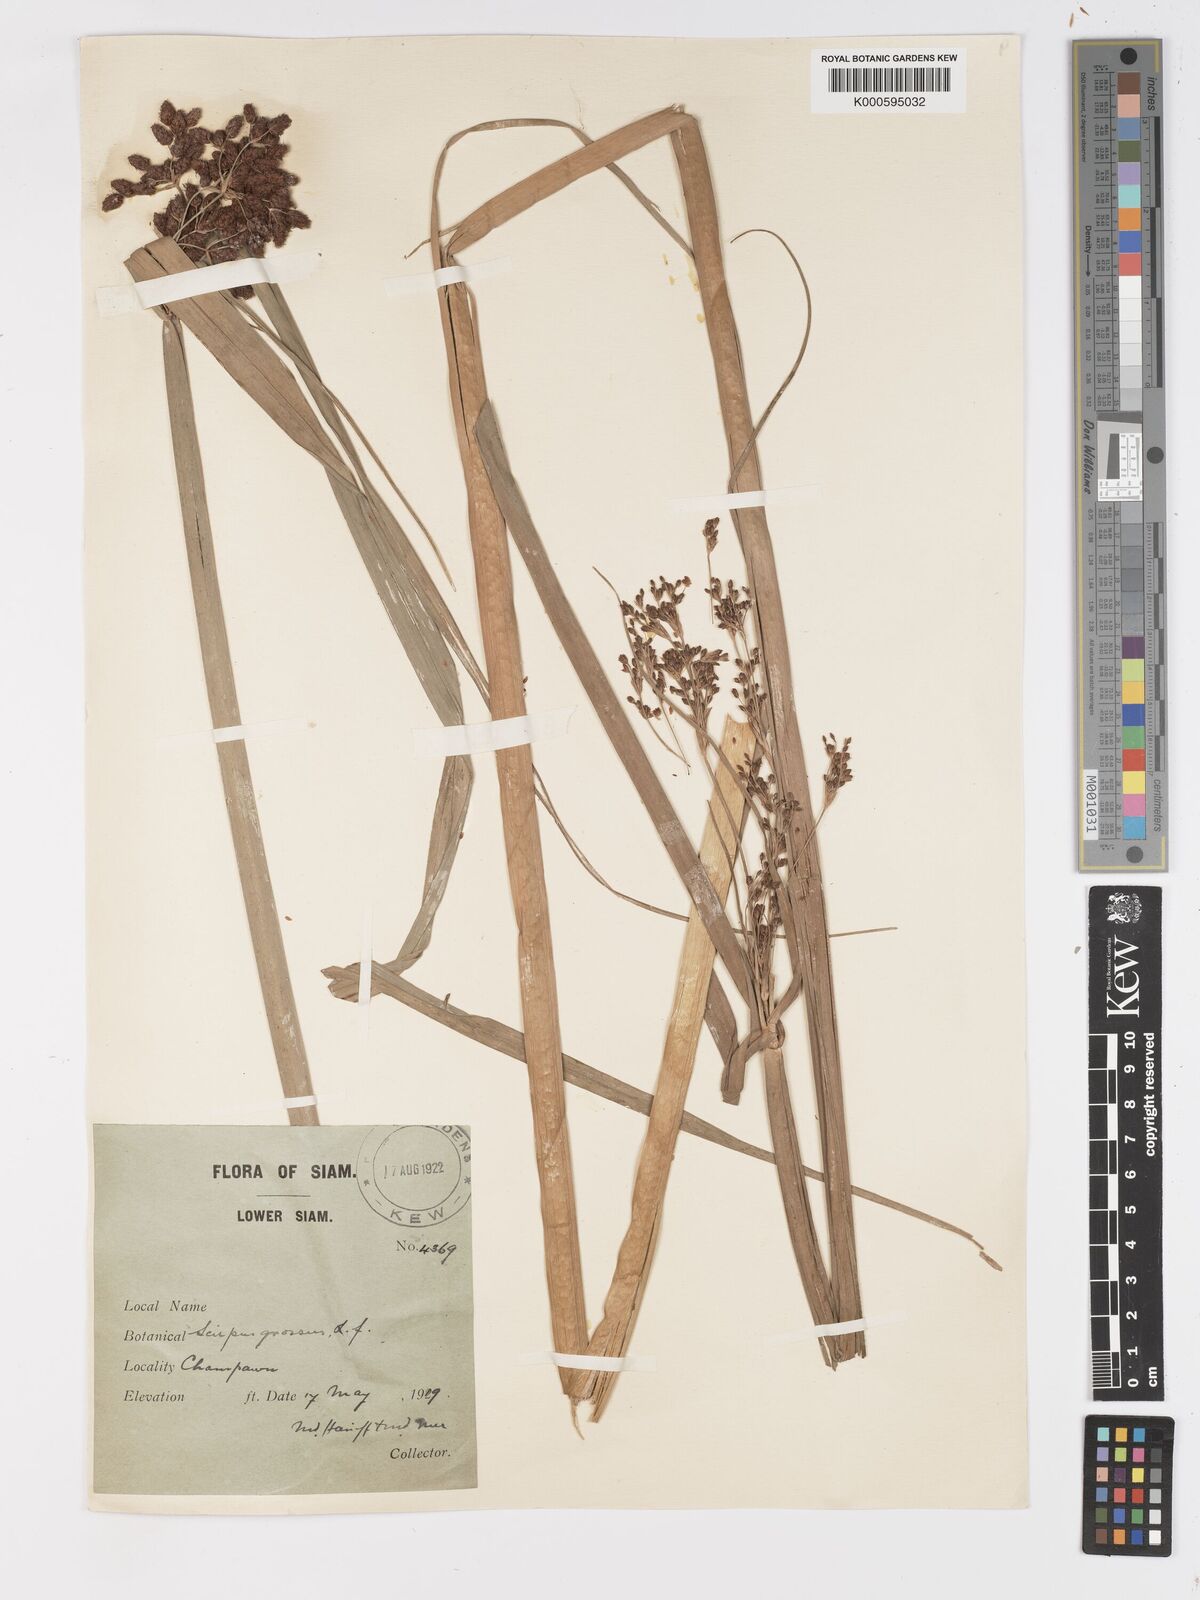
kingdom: Plantae
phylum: Tracheophyta
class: Liliopsida
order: Poales
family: Cyperaceae
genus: Actinoscirpus
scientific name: Actinoscirpus grossus
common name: Giant bur rush
